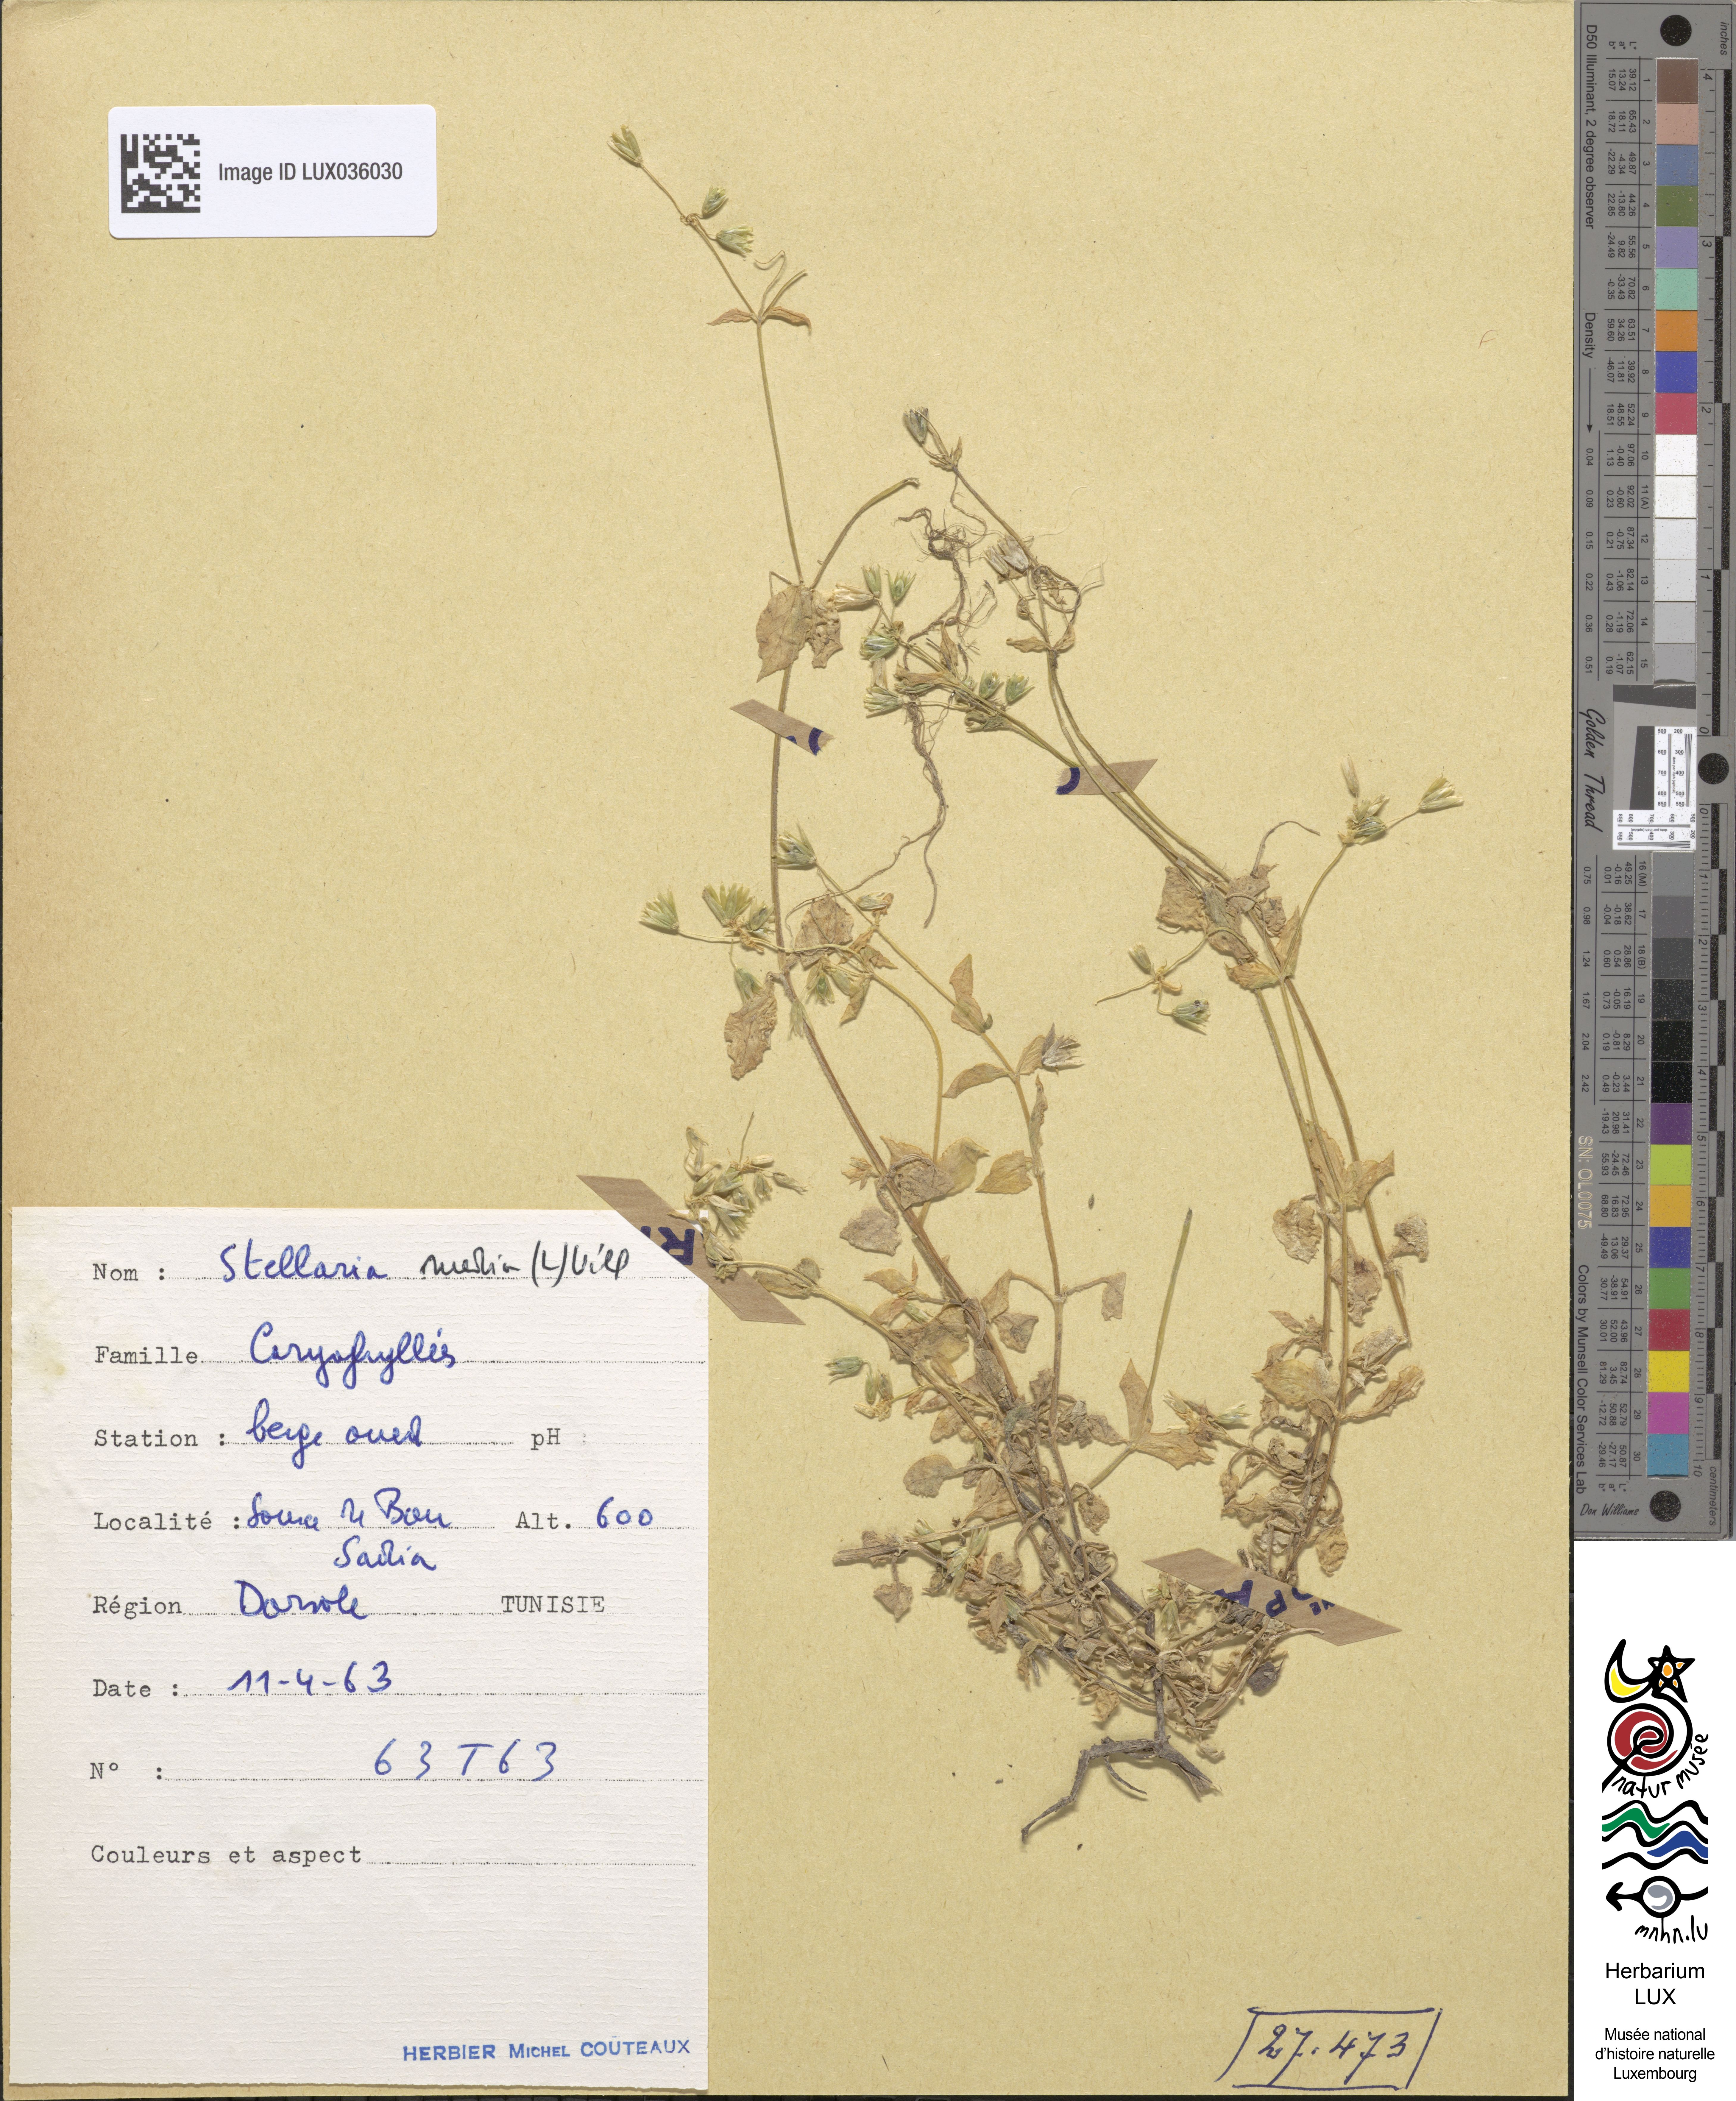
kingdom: Plantae
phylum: Tracheophyta
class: Magnoliopsida
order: Caryophyllales
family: Caryophyllaceae
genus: Stellaria
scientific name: Stellaria media
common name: Common chickweed
